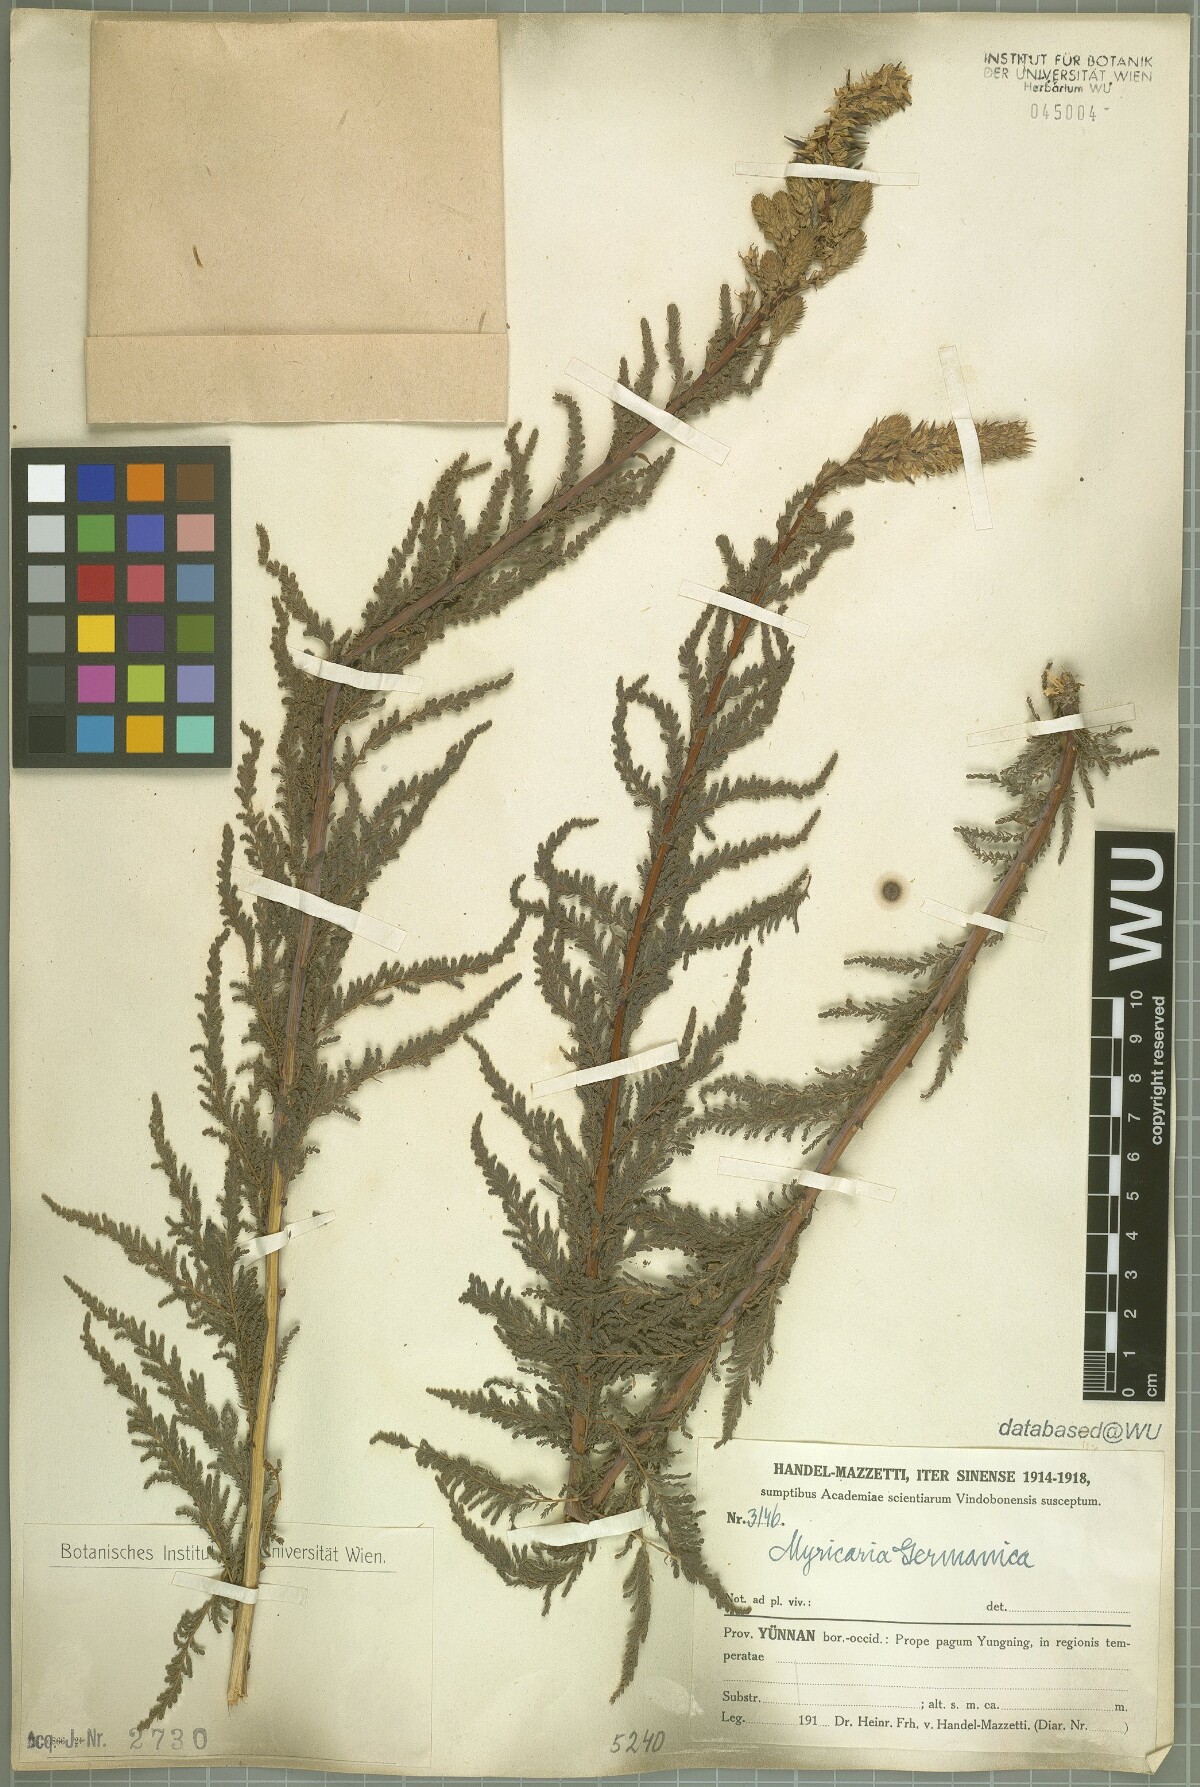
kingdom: Plantae
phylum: Tracheophyta
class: Magnoliopsida
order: Caryophyllales
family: Tamaricaceae
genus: Myricaria
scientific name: Myricaria germanica
